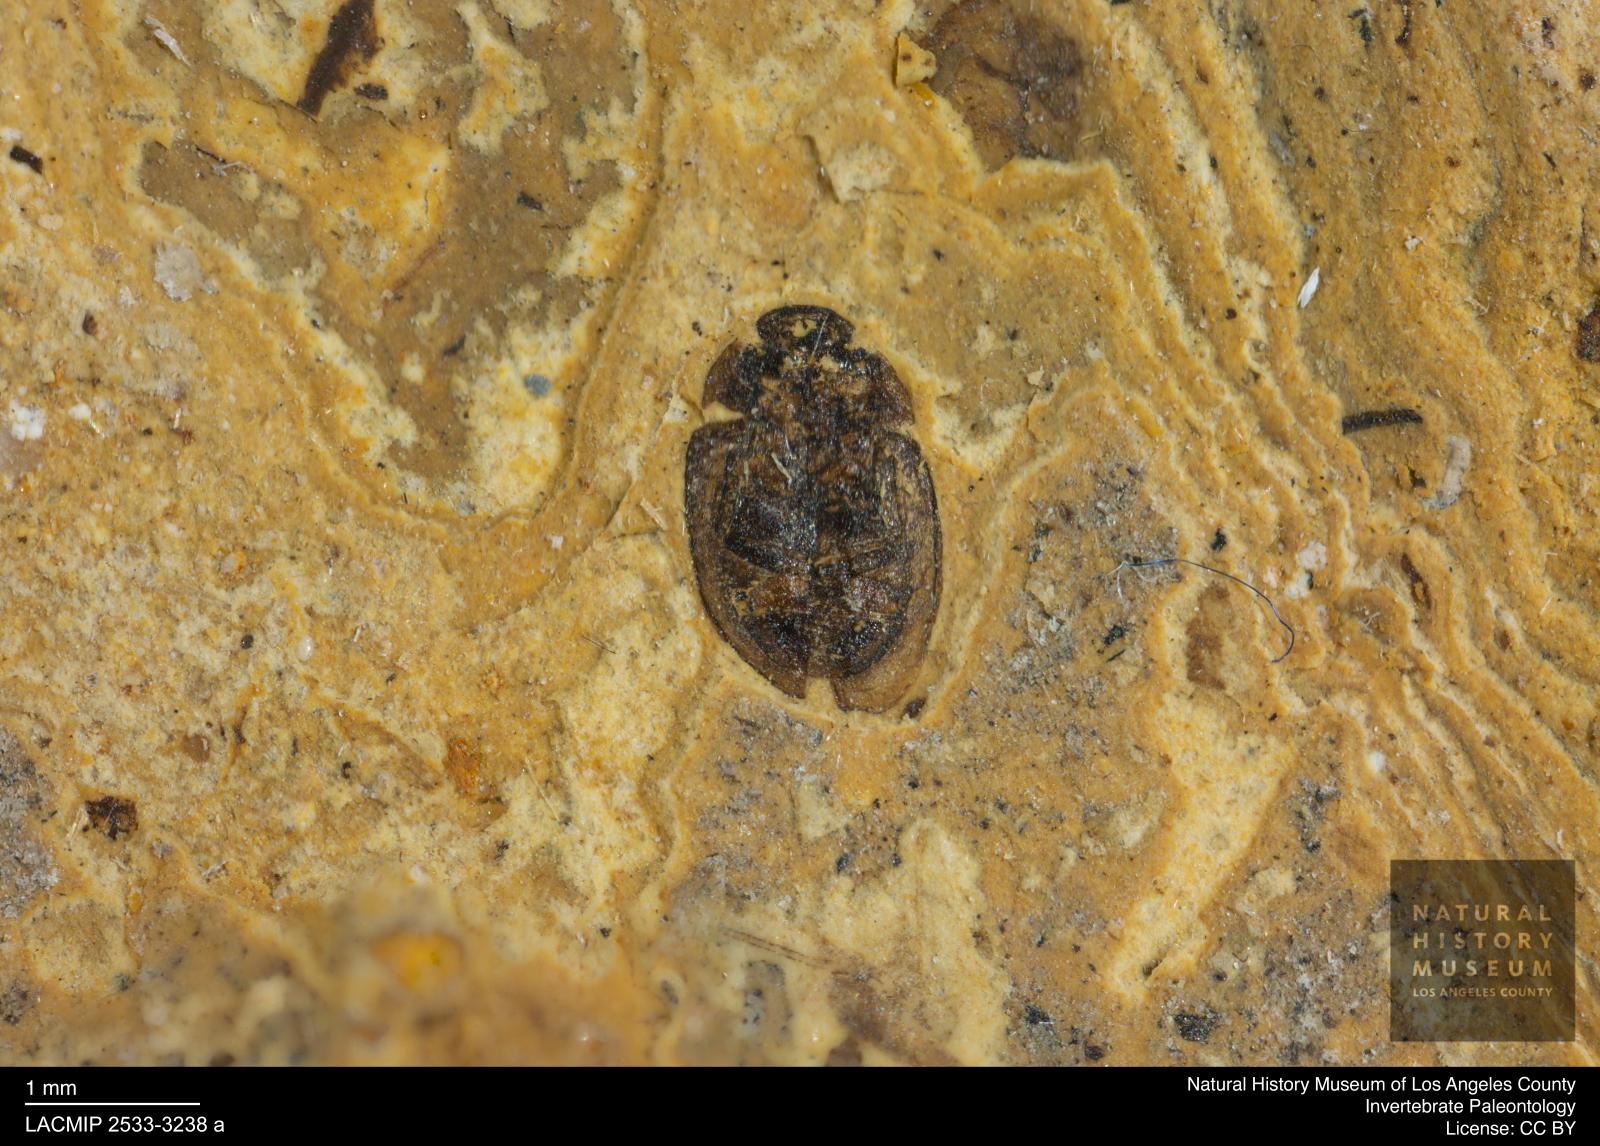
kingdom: Animalia
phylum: Arthropoda
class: Insecta
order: Coleoptera
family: Hydrophilidae
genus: Paracymus
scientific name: Paracymus excitatus
